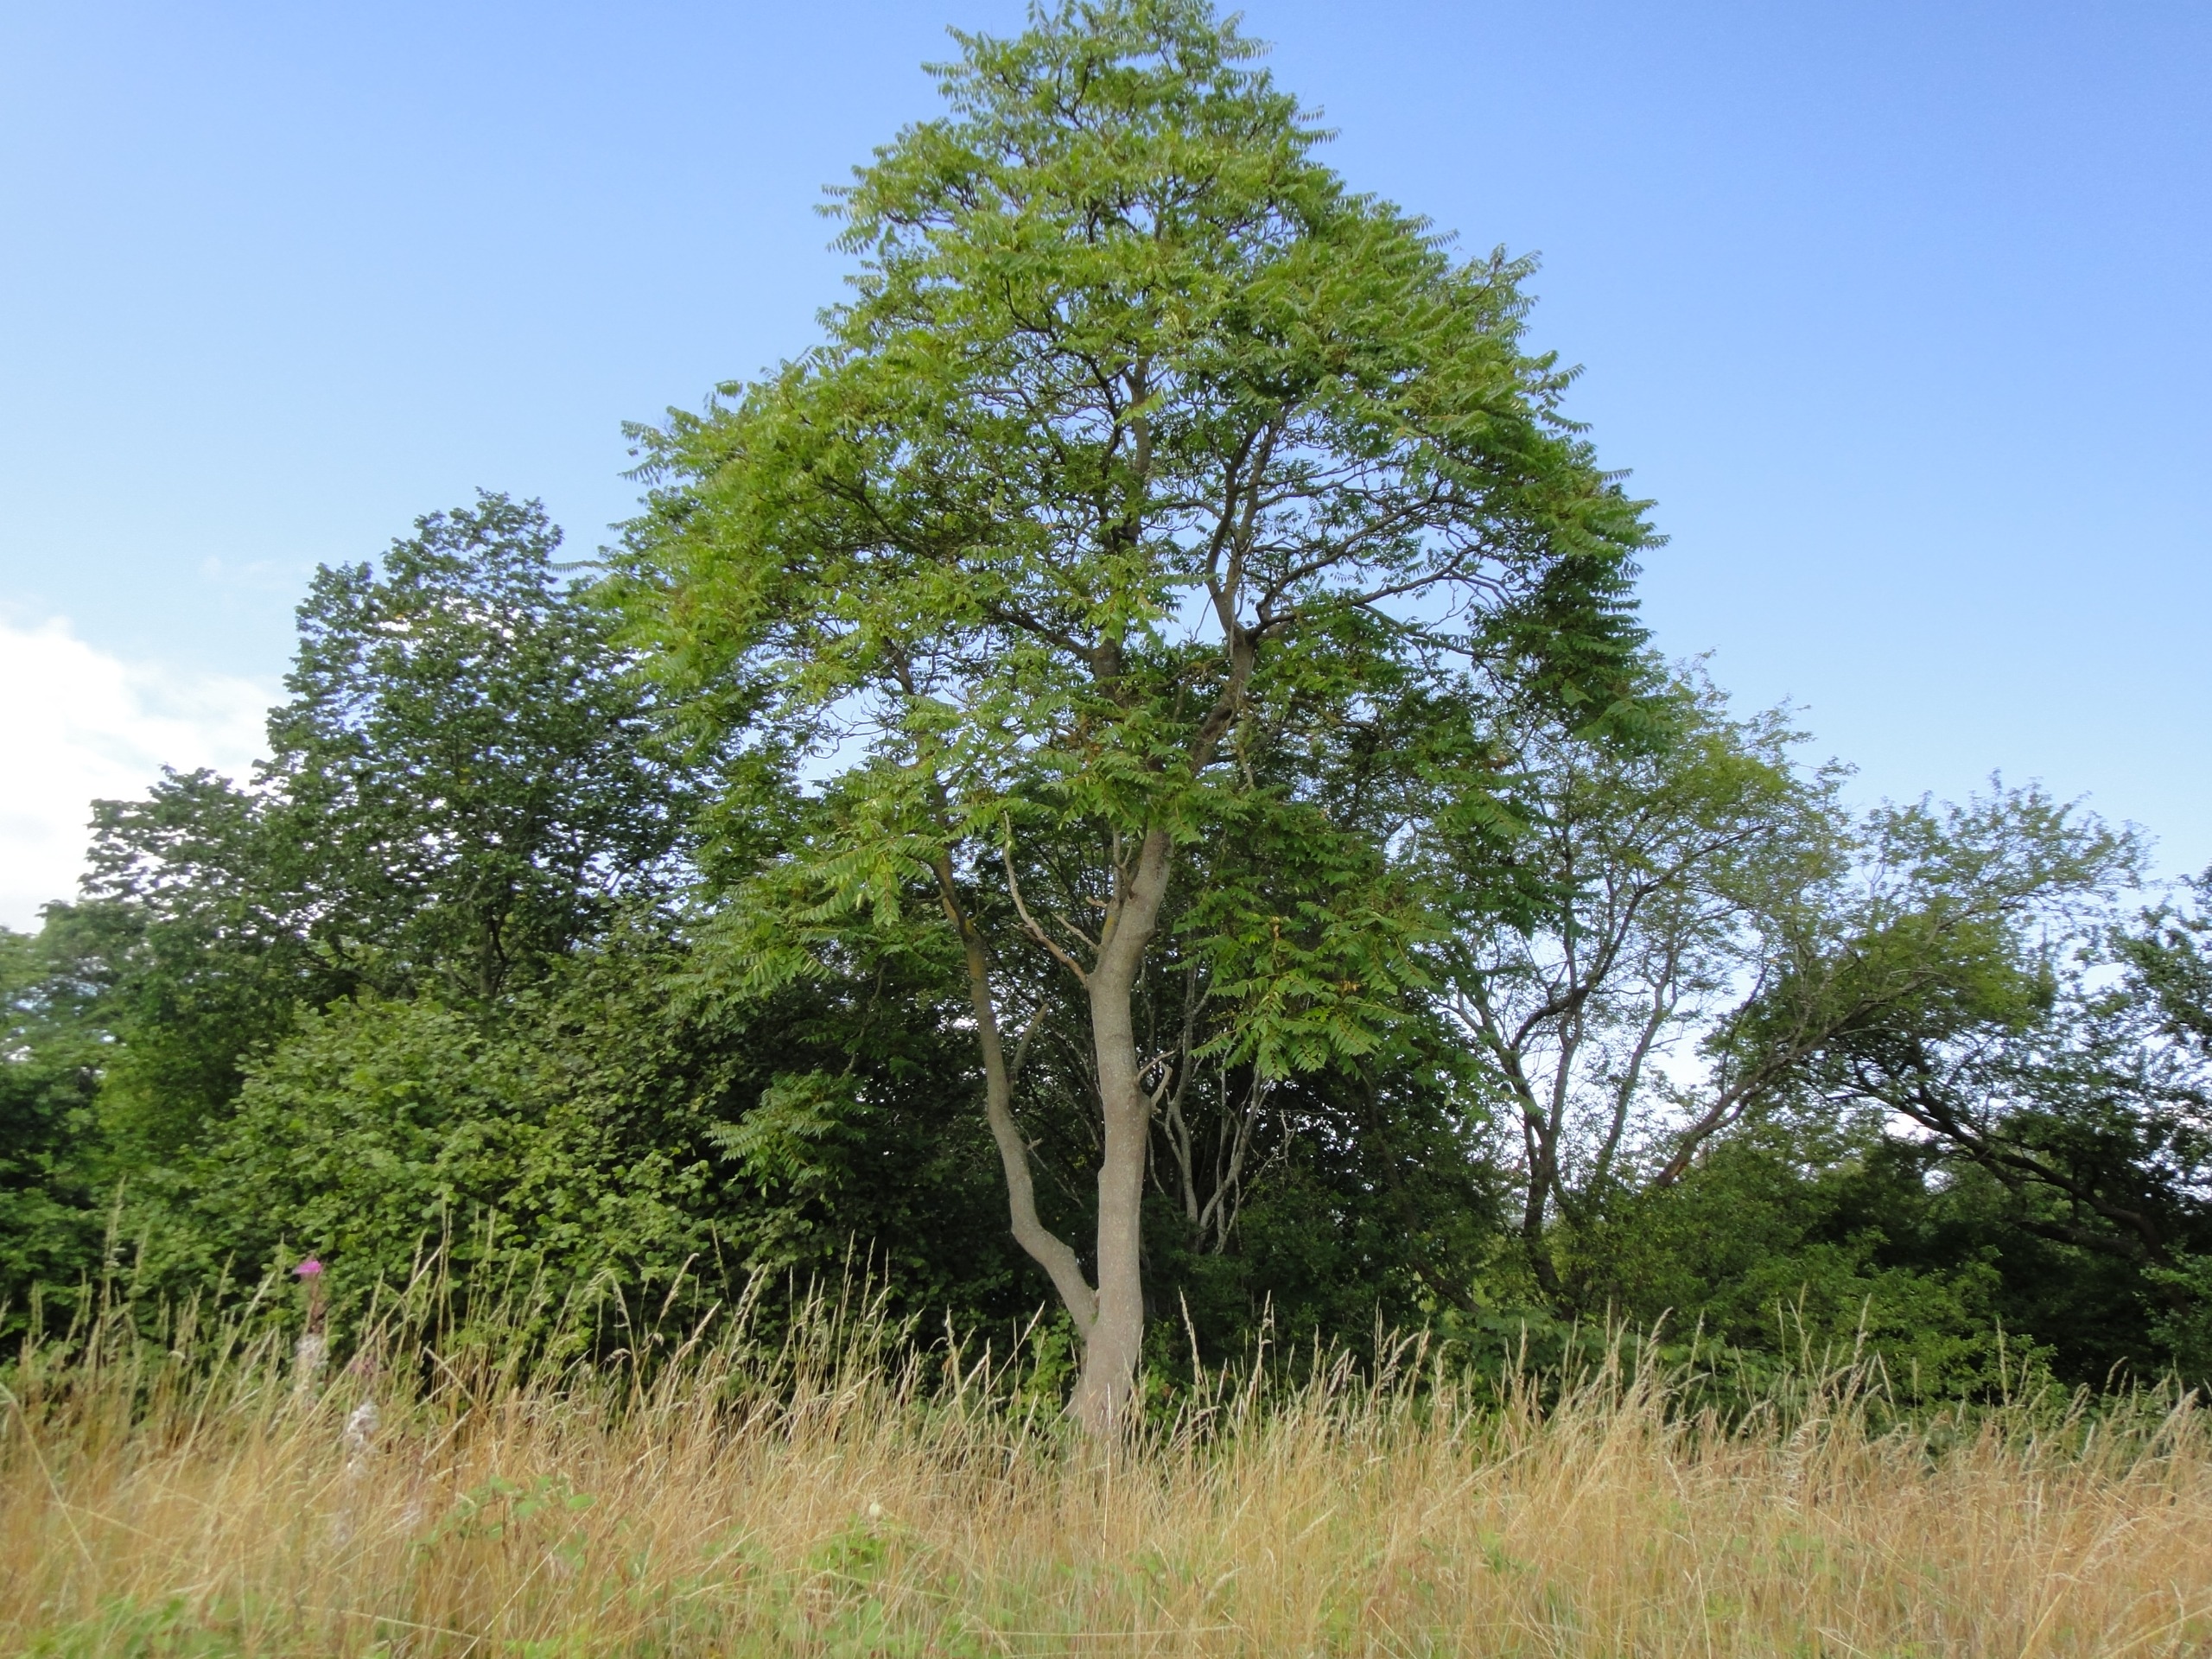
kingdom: Plantae
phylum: Tracheophyta
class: Magnoliopsida
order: Sapindales
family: Simaroubaceae
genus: Ailanthus
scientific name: Ailanthus altissima
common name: Skyrækker
